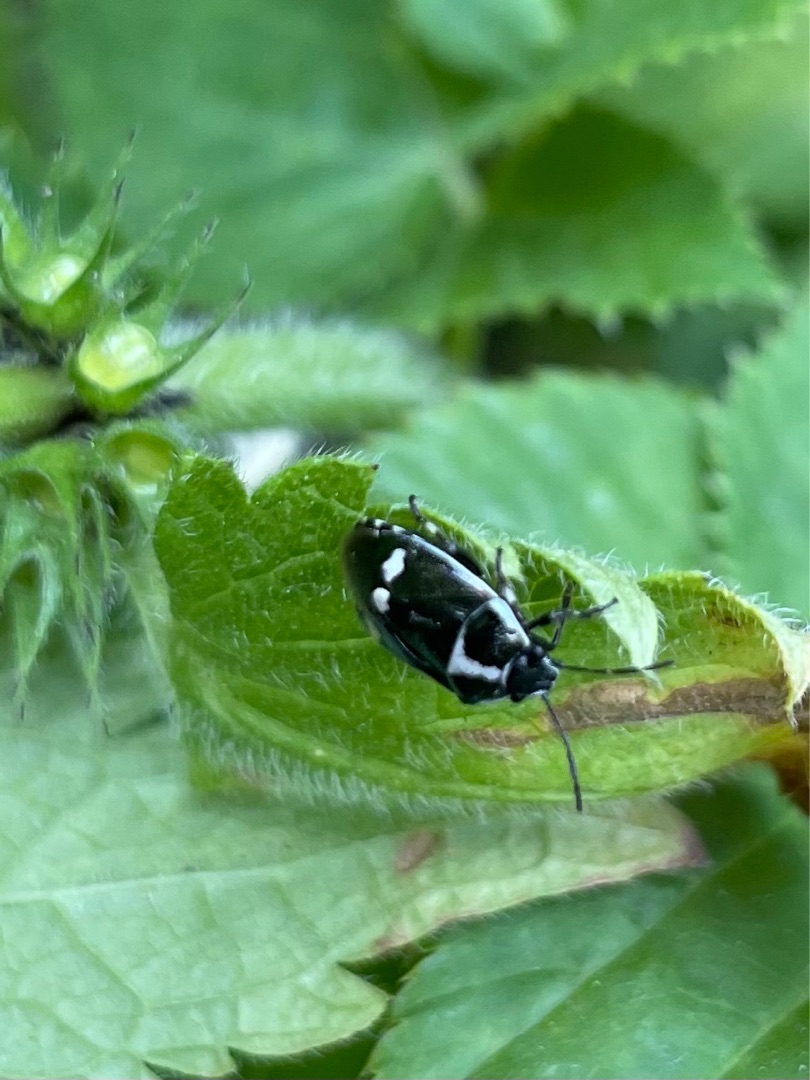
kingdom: Animalia
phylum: Arthropoda
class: Insecta
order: Hemiptera
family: Pentatomidae
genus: Eurydema
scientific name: Eurydema oleracea
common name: Almindelig kåltæge
